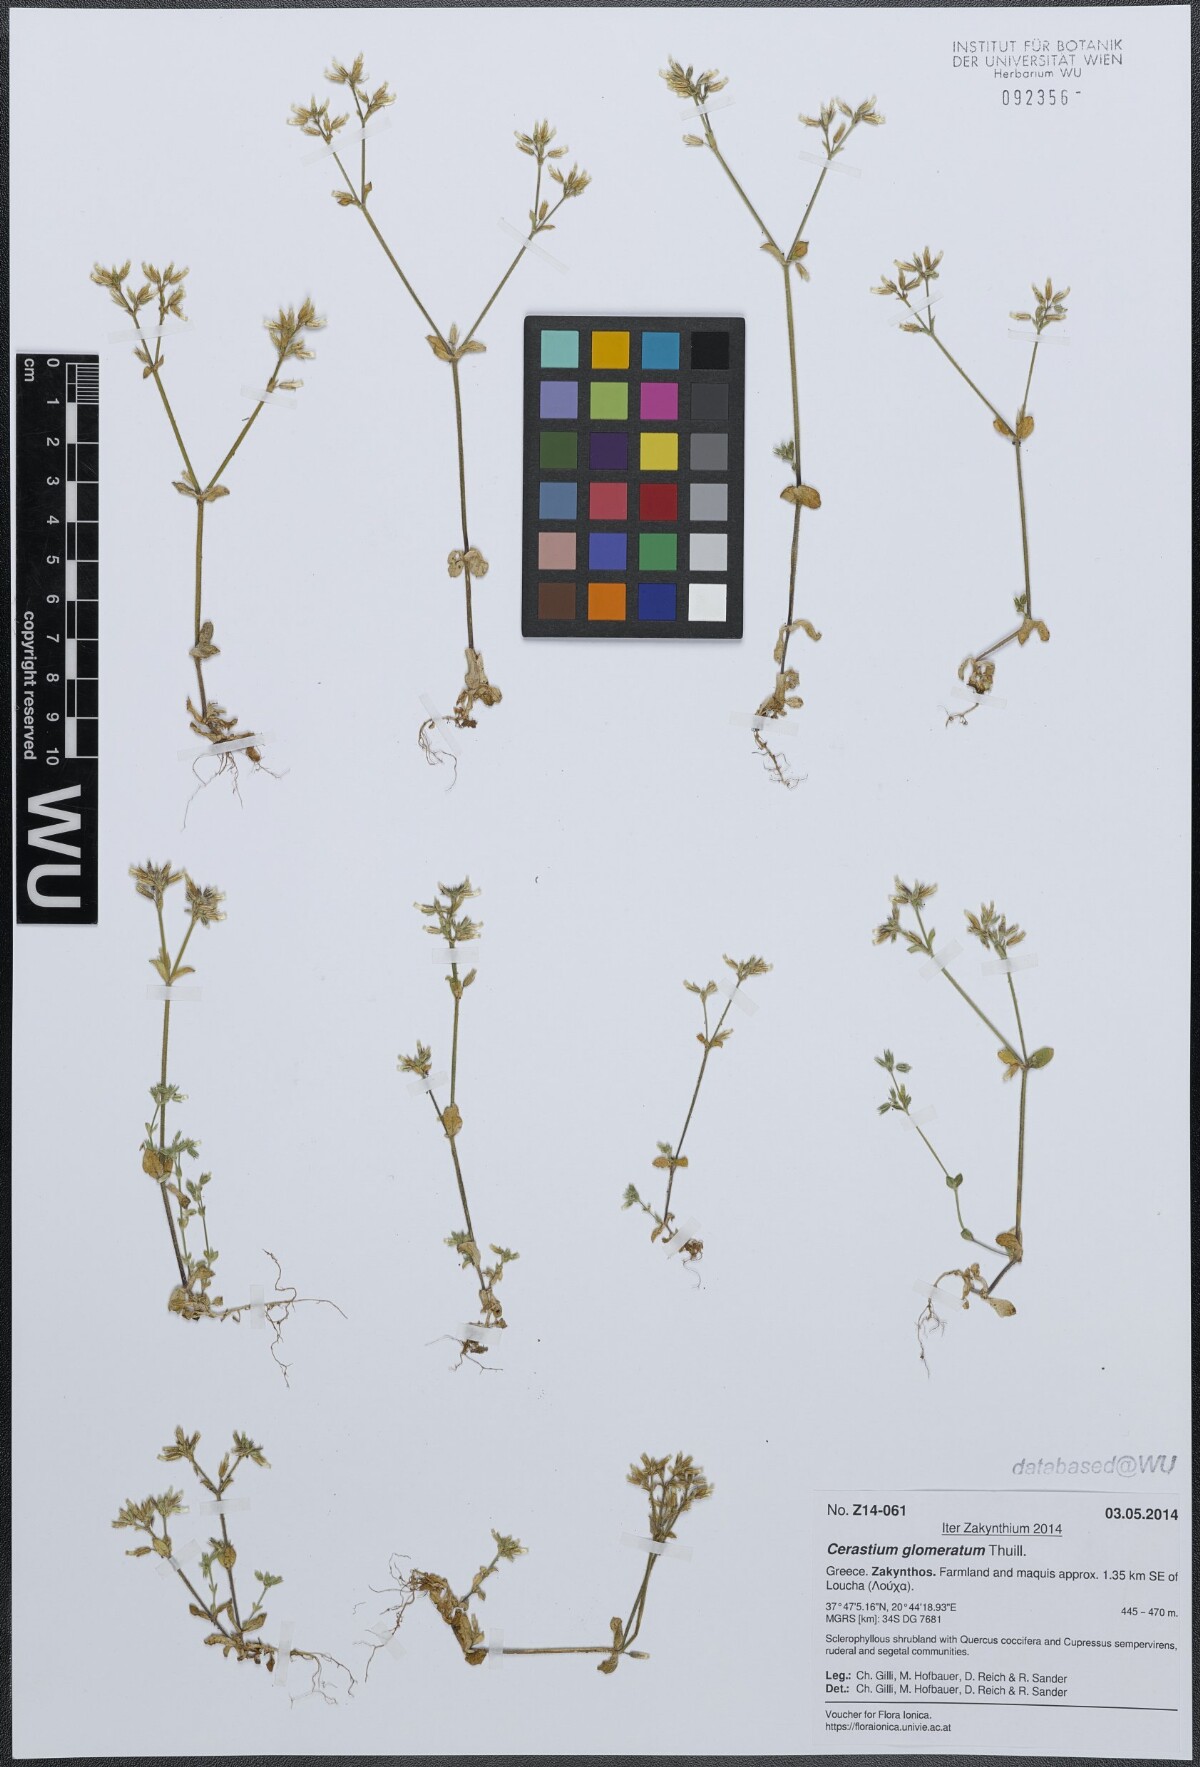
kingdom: Plantae
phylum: Tracheophyta
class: Magnoliopsida
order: Caryophyllales
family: Caryophyllaceae
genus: Cerastium
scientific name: Cerastium glomeratum
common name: Sticky chickweed
